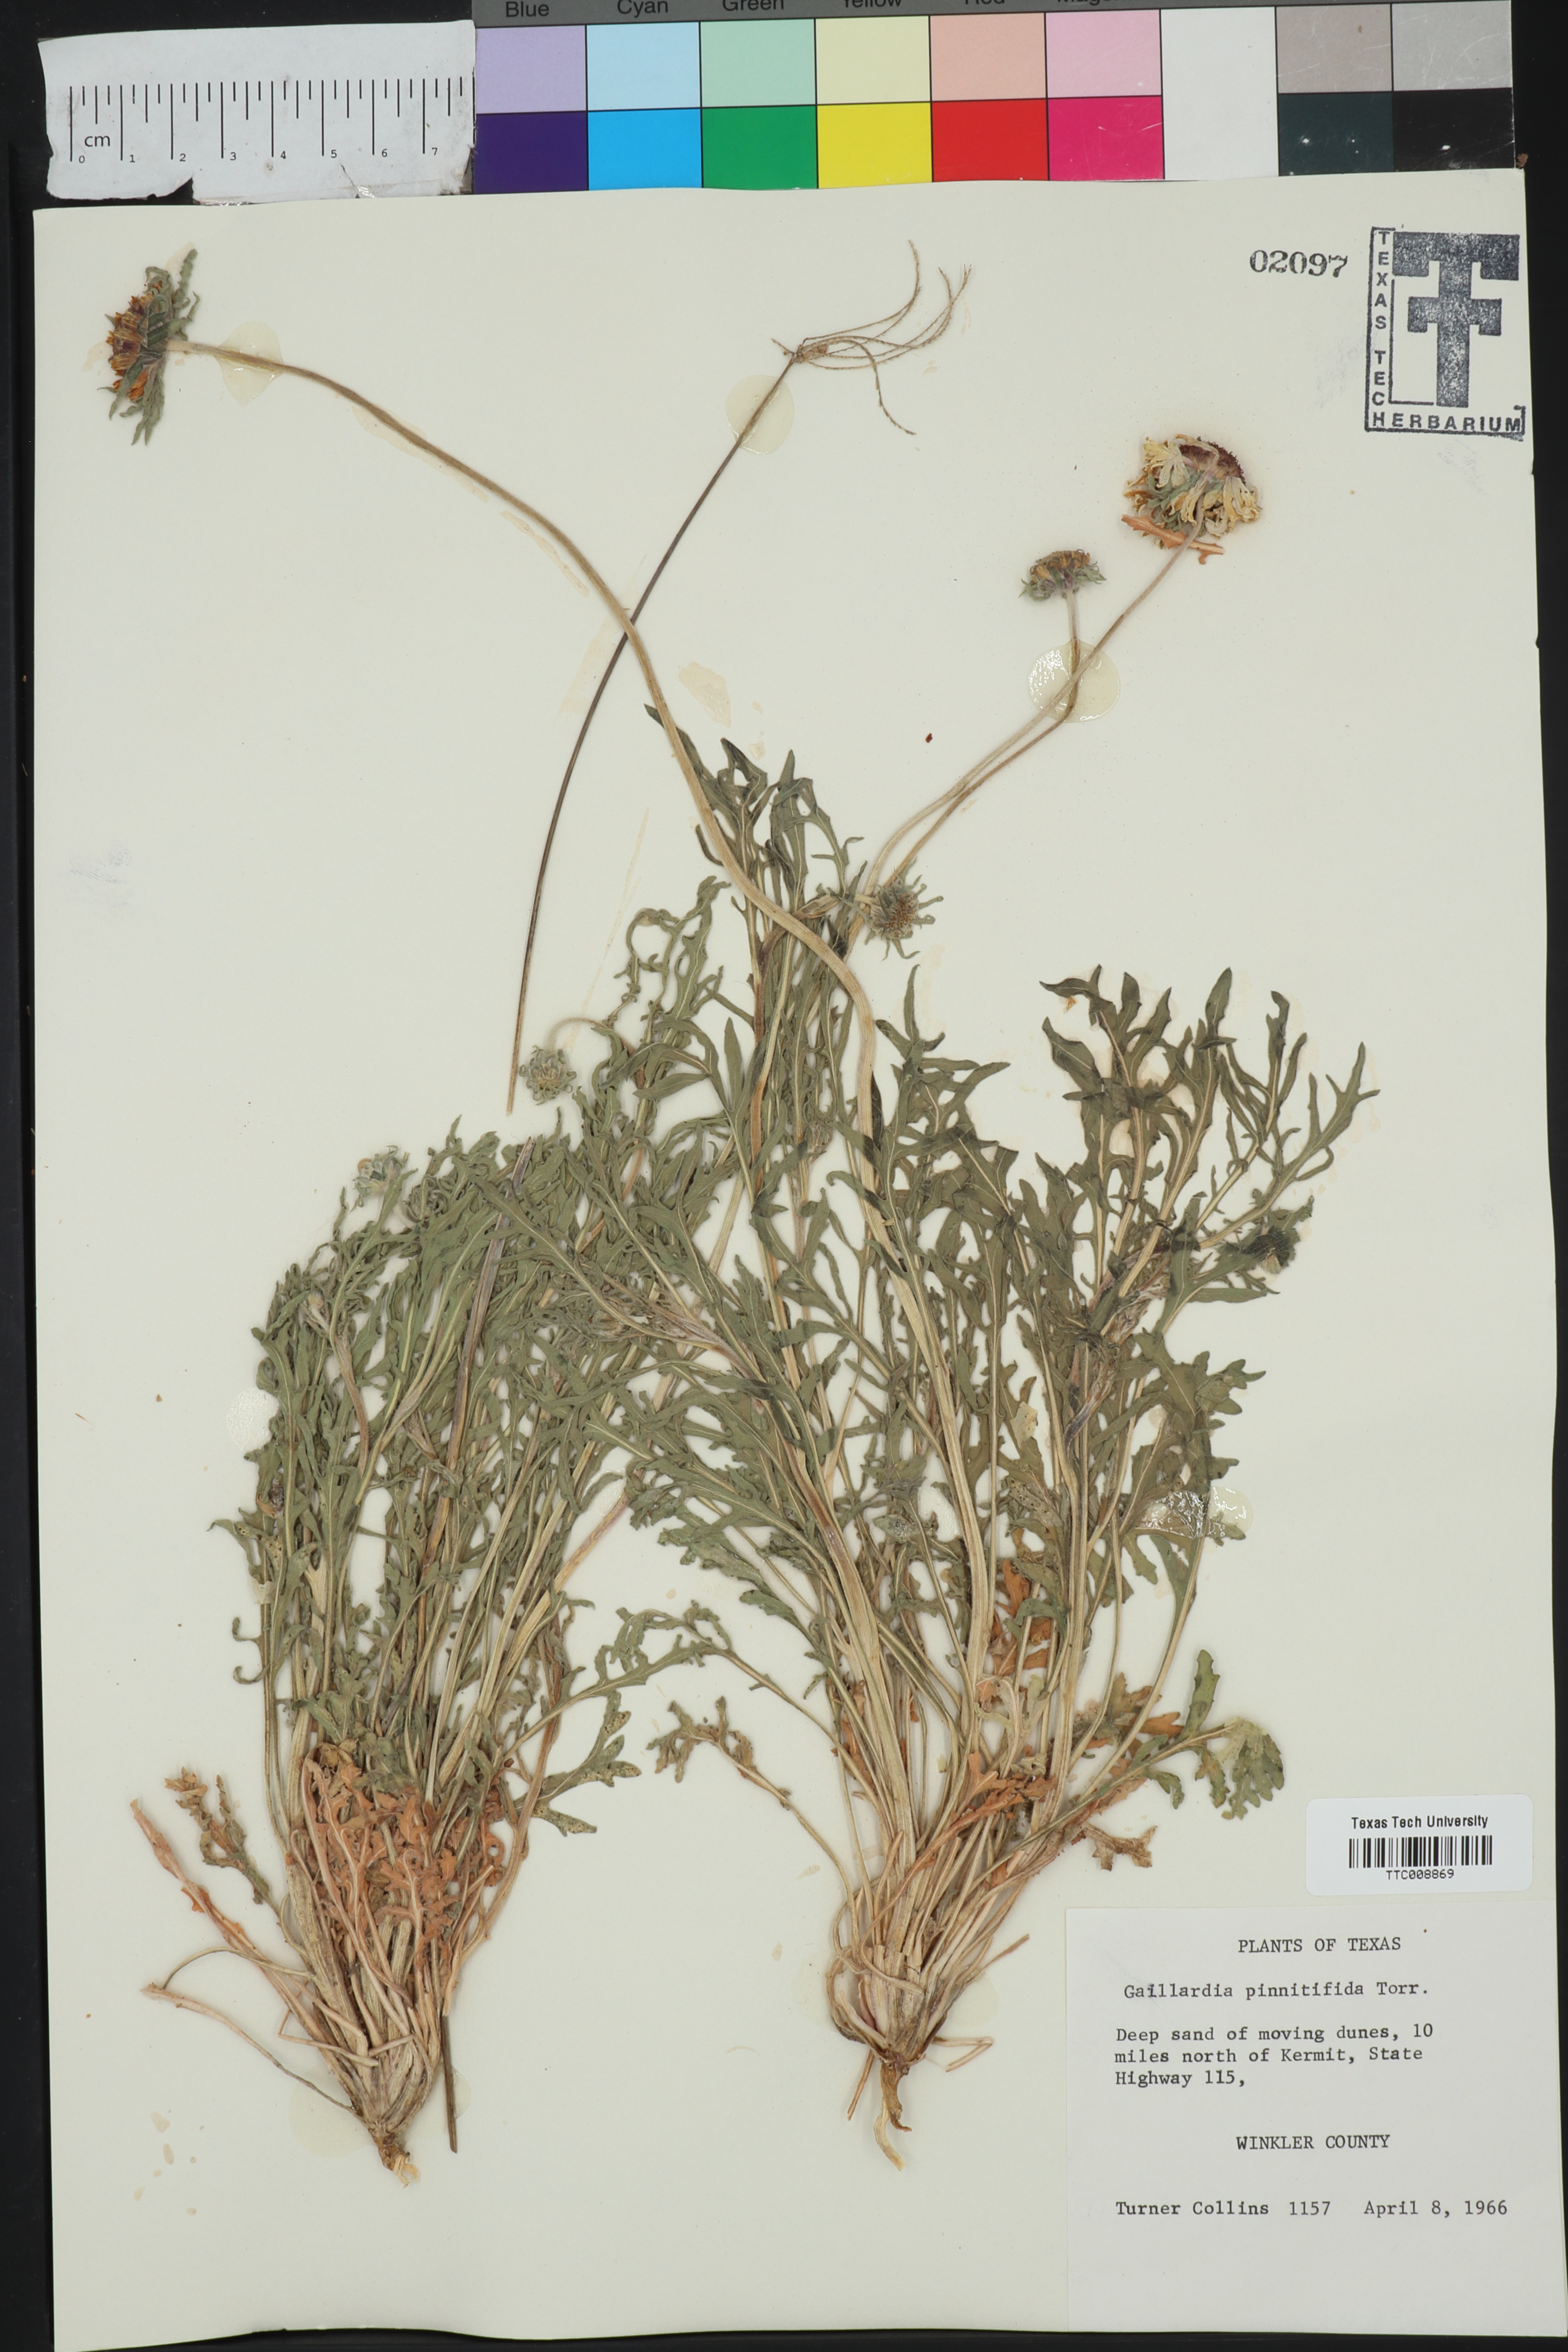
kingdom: Plantae
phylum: Tracheophyta
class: Magnoliopsida
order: Asterales
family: Asteraceae
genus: Gaillardia
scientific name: Gaillardia pinnatifida
